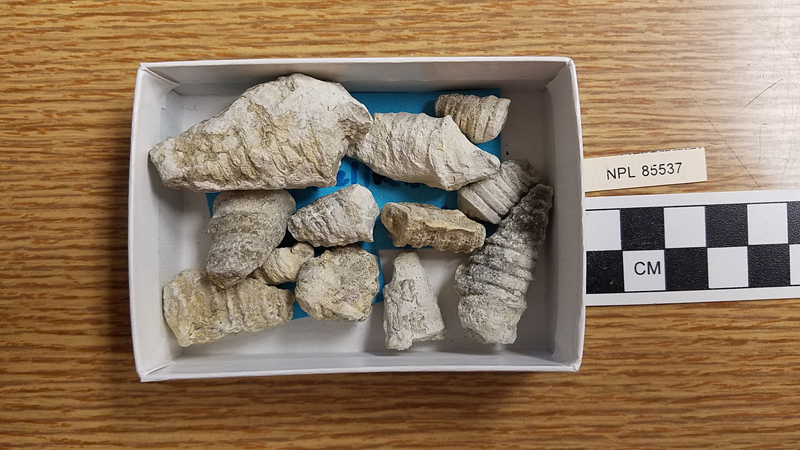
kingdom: Animalia
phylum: Mollusca
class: Gastropoda
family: Nerineidae
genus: Nerinea
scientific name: Nerinea
